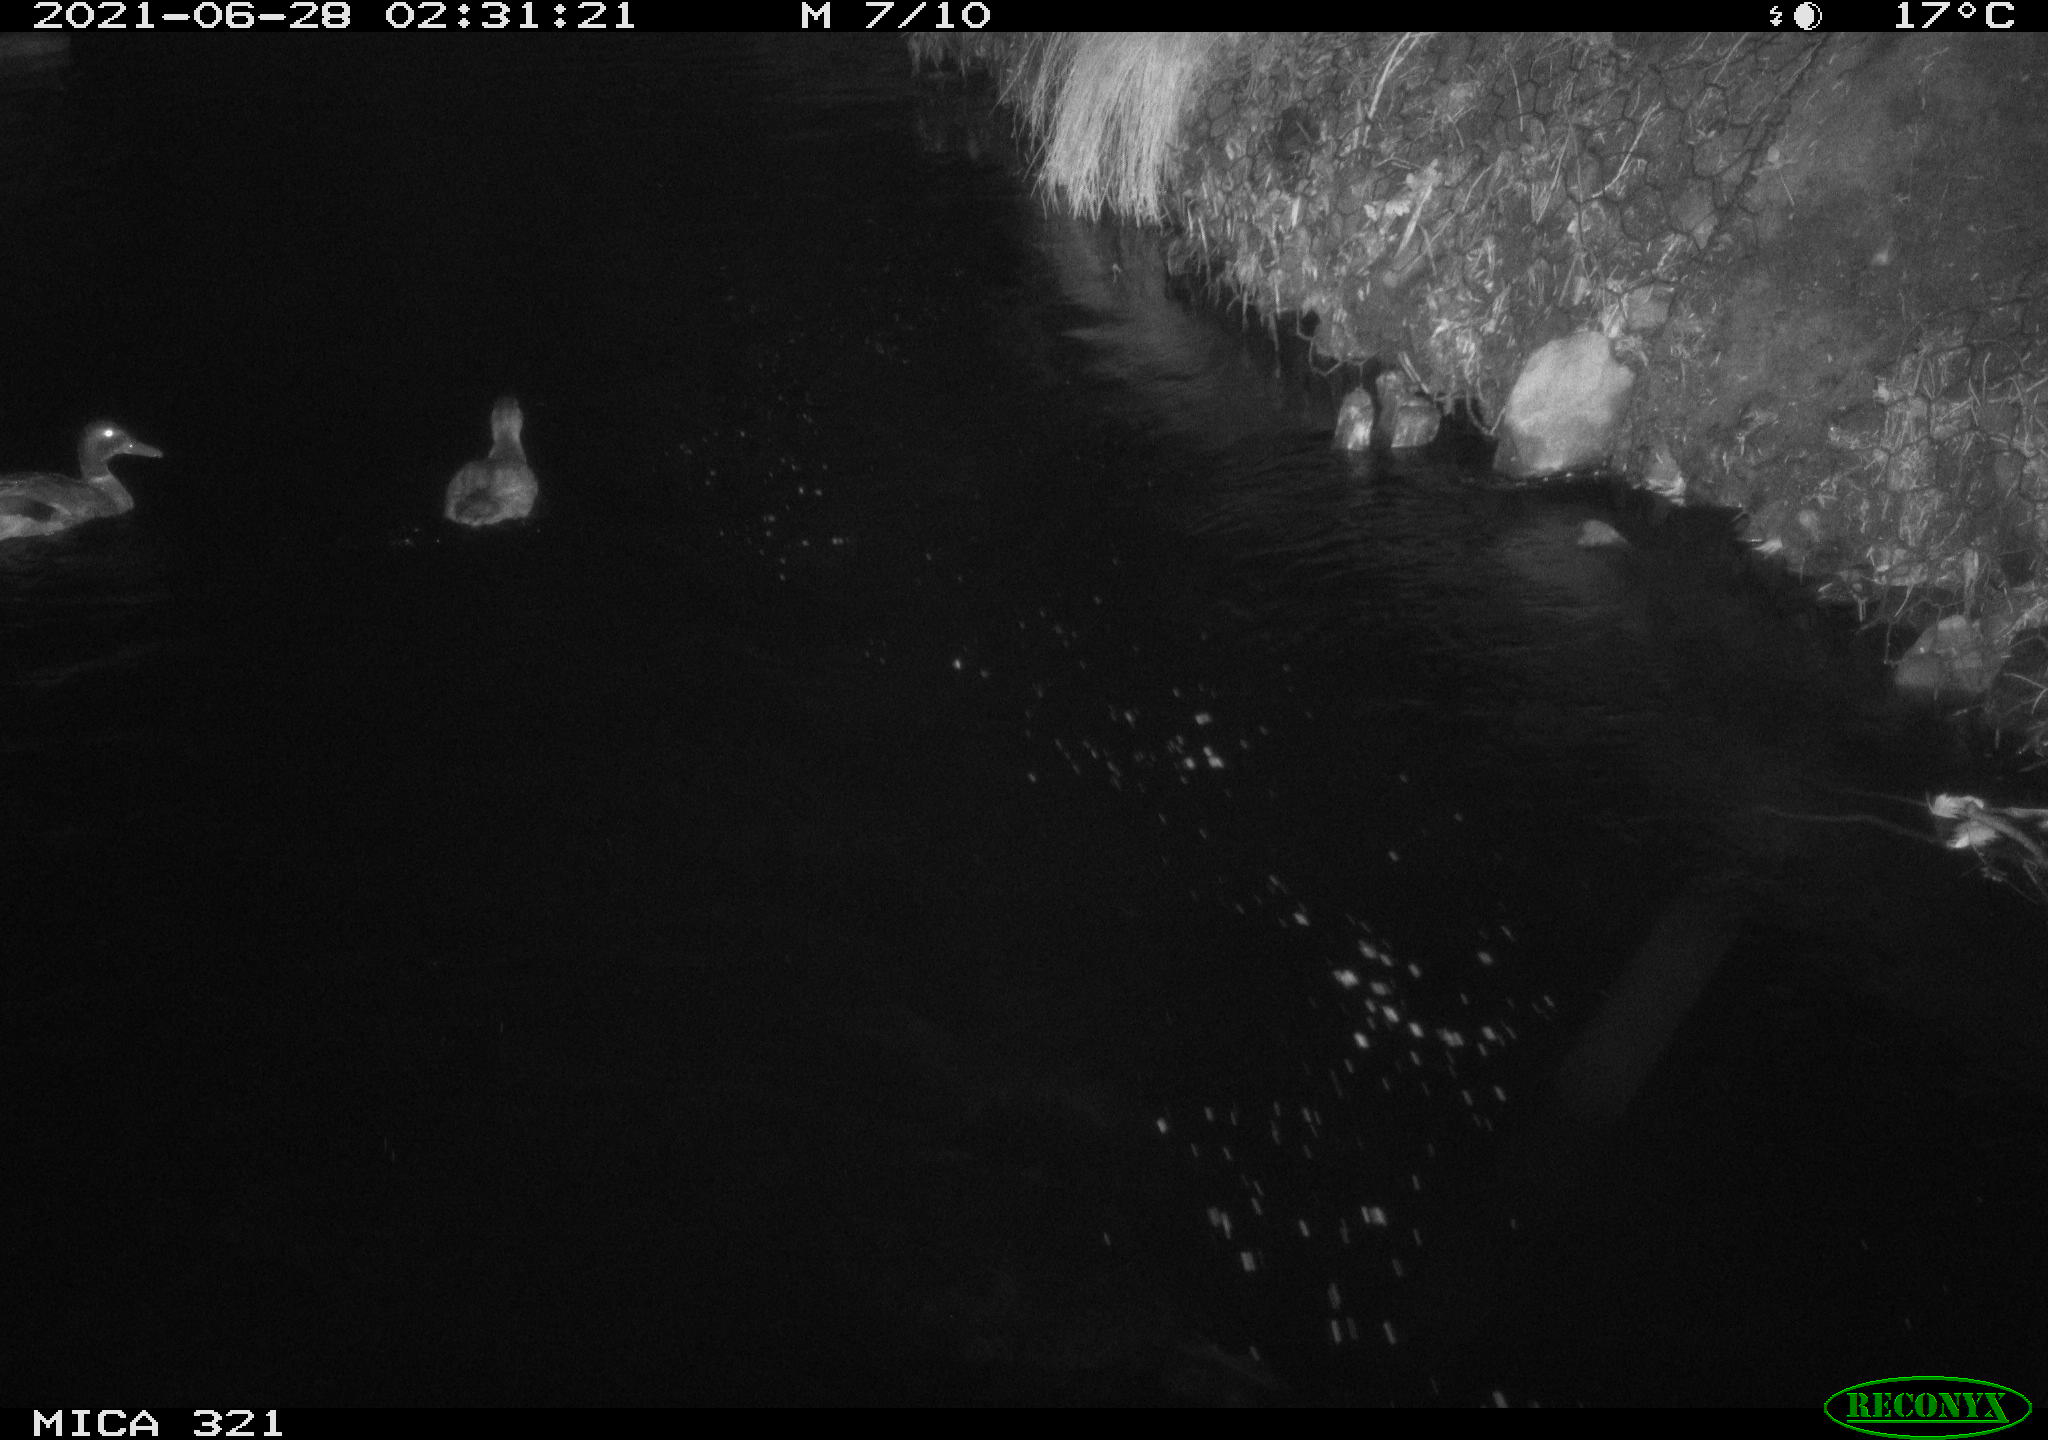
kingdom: Animalia
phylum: Chordata
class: Aves
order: Anseriformes
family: Anatidae
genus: Anas
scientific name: Anas platyrhynchos
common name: Mallard
